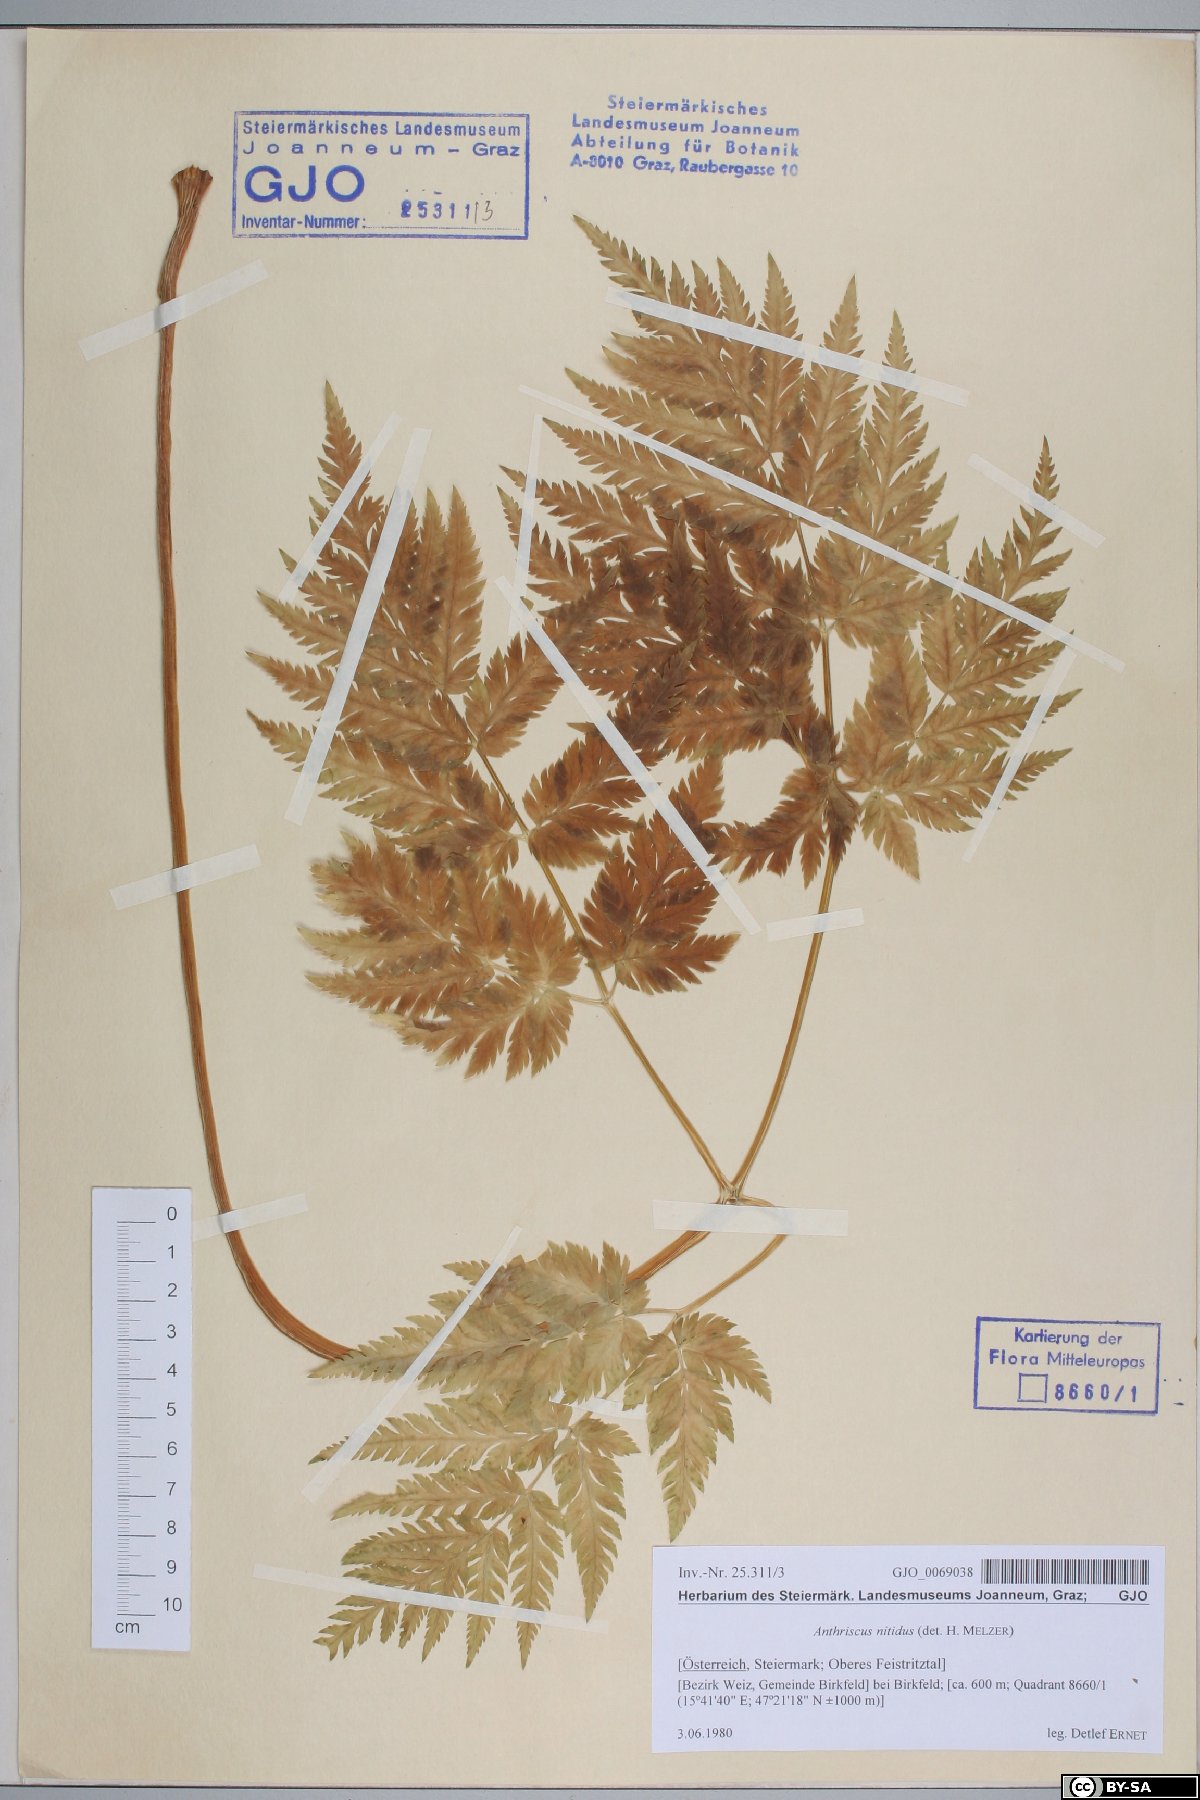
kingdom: Plantae
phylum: Tracheophyta
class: Magnoliopsida
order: Apiales
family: Apiaceae
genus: Anthriscus
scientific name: Anthriscus nitida
